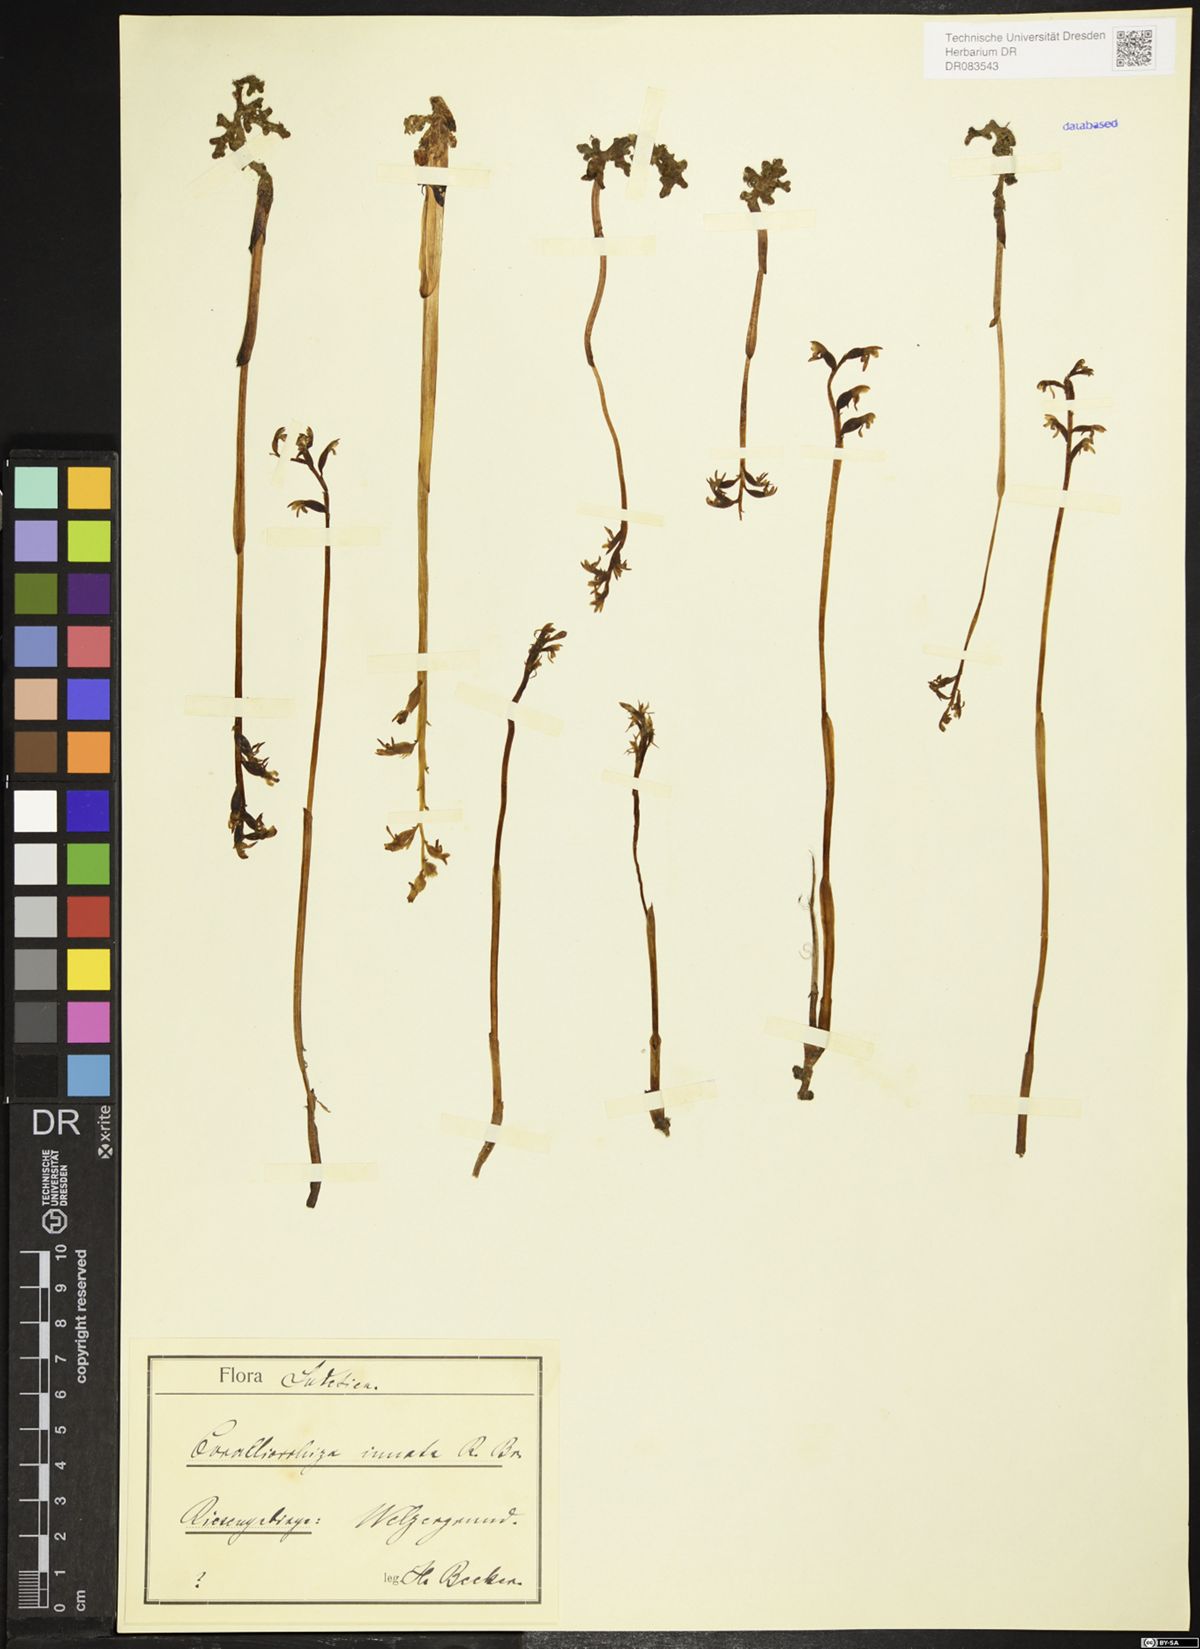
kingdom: Plantae
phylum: Tracheophyta
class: Liliopsida
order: Asparagales
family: Orchidaceae
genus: Corallorhiza
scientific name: Corallorhiza trifida
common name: Yellow coralroot
